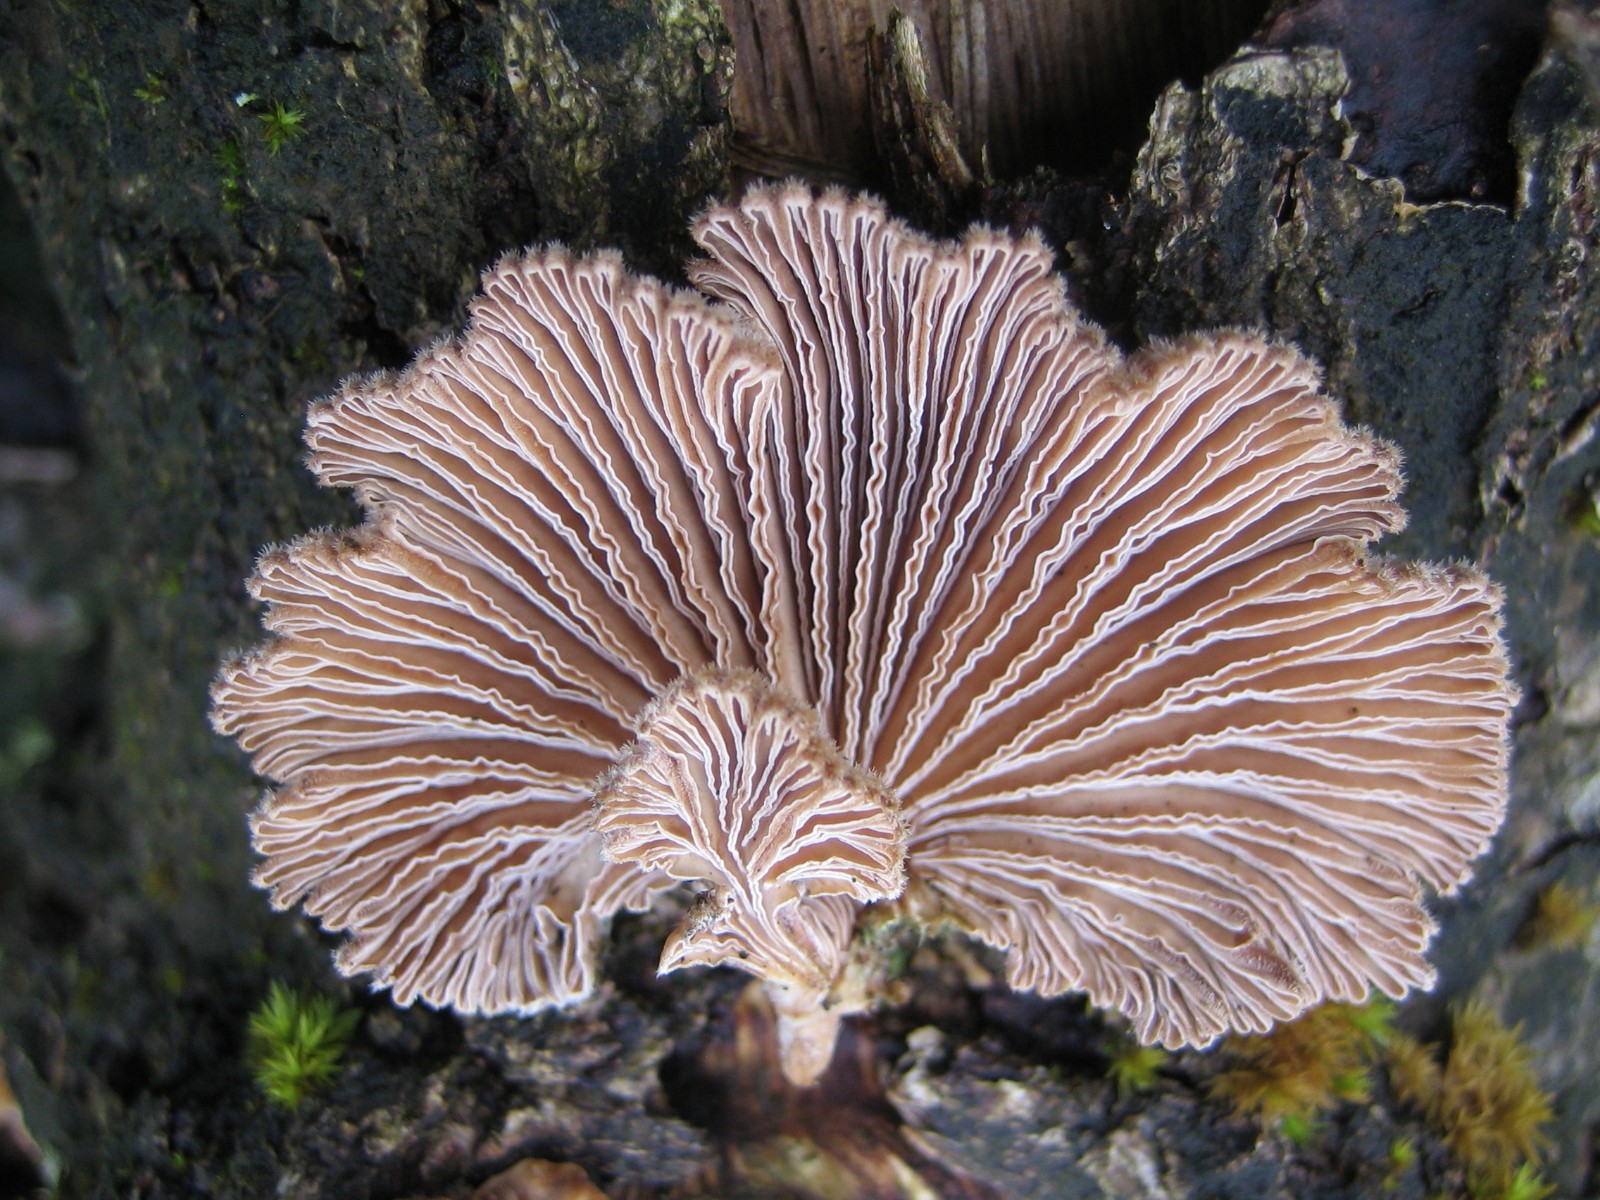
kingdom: Fungi
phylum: Basidiomycota
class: Agaricomycetes
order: Agaricales
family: Schizophyllaceae
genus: Schizophyllum
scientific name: Schizophyllum commune
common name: kløvblad
